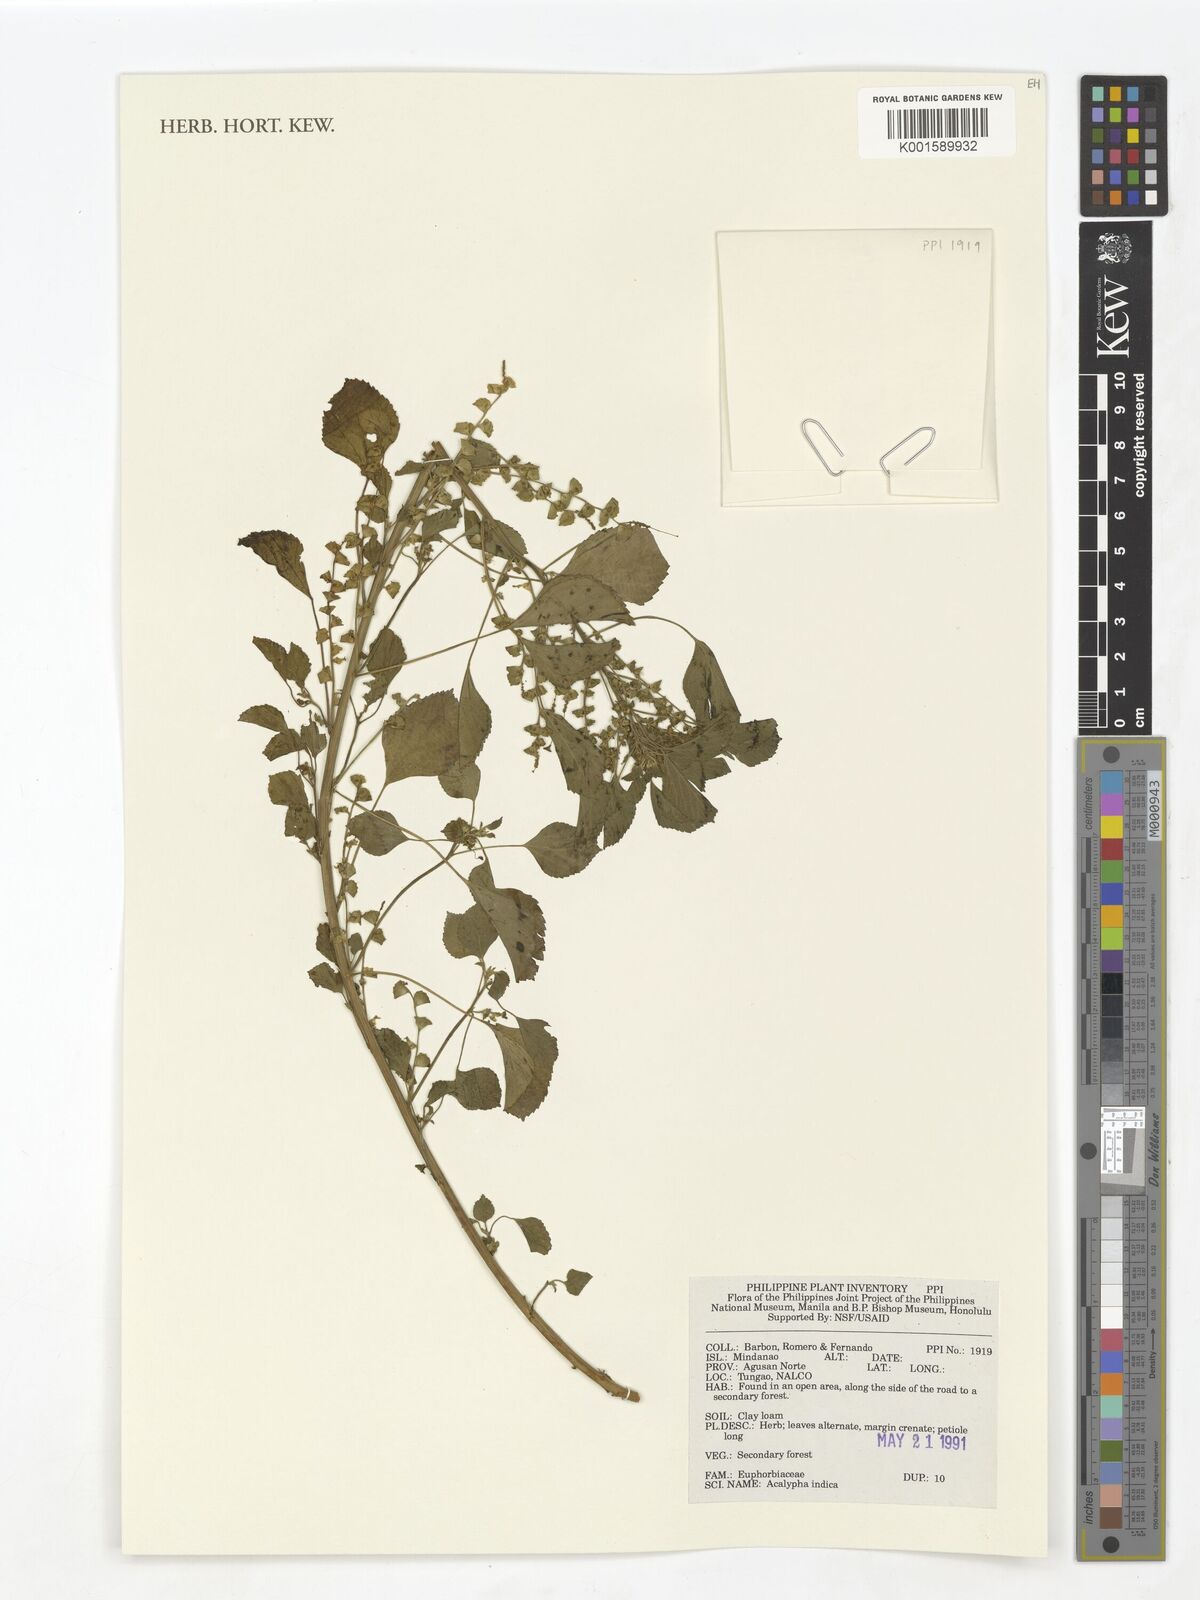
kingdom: Plantae
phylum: Tracheophyta
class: Magnoliopsida
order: Malpighiales
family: Euphorbiaceae
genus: Acalypha
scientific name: Acalypha indica
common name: Indian acalypha
